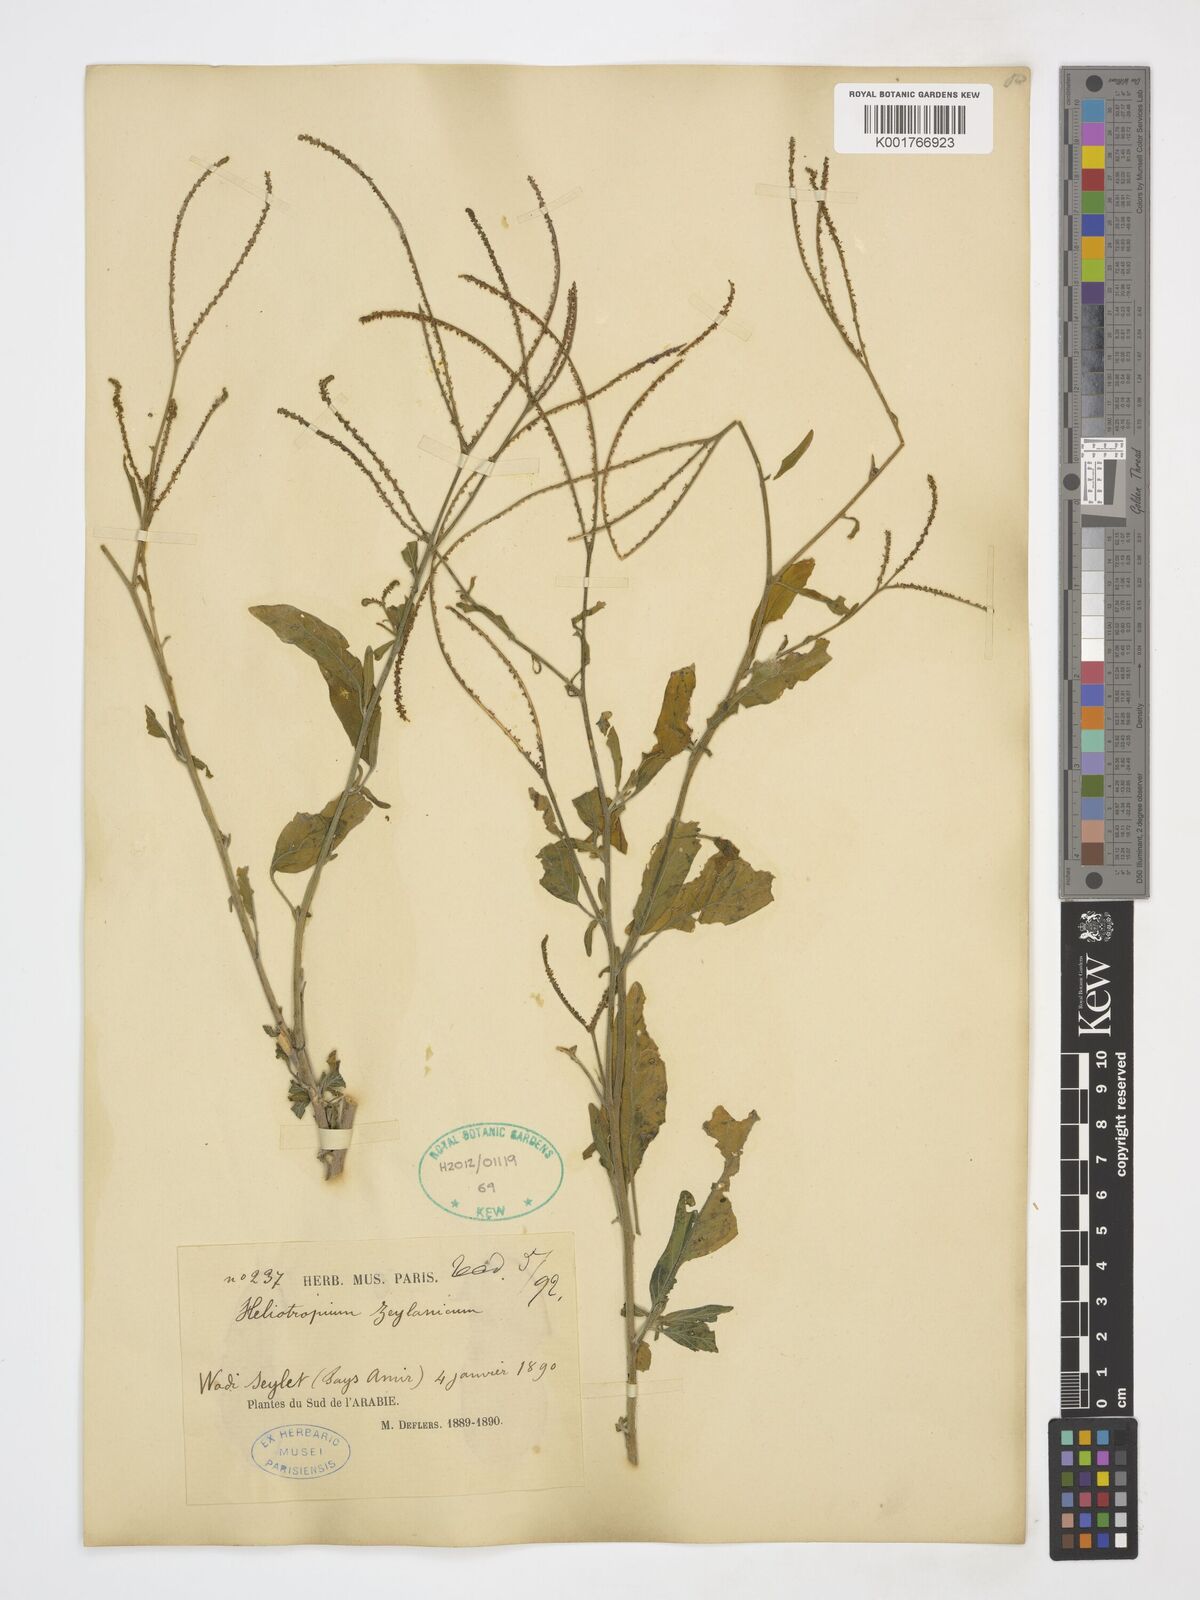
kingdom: Plantae
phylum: Tracheophyta
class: Magnoliopsida
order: Boraginales
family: Heliotropiaceae
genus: Euploca
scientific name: Euploca bracteata
